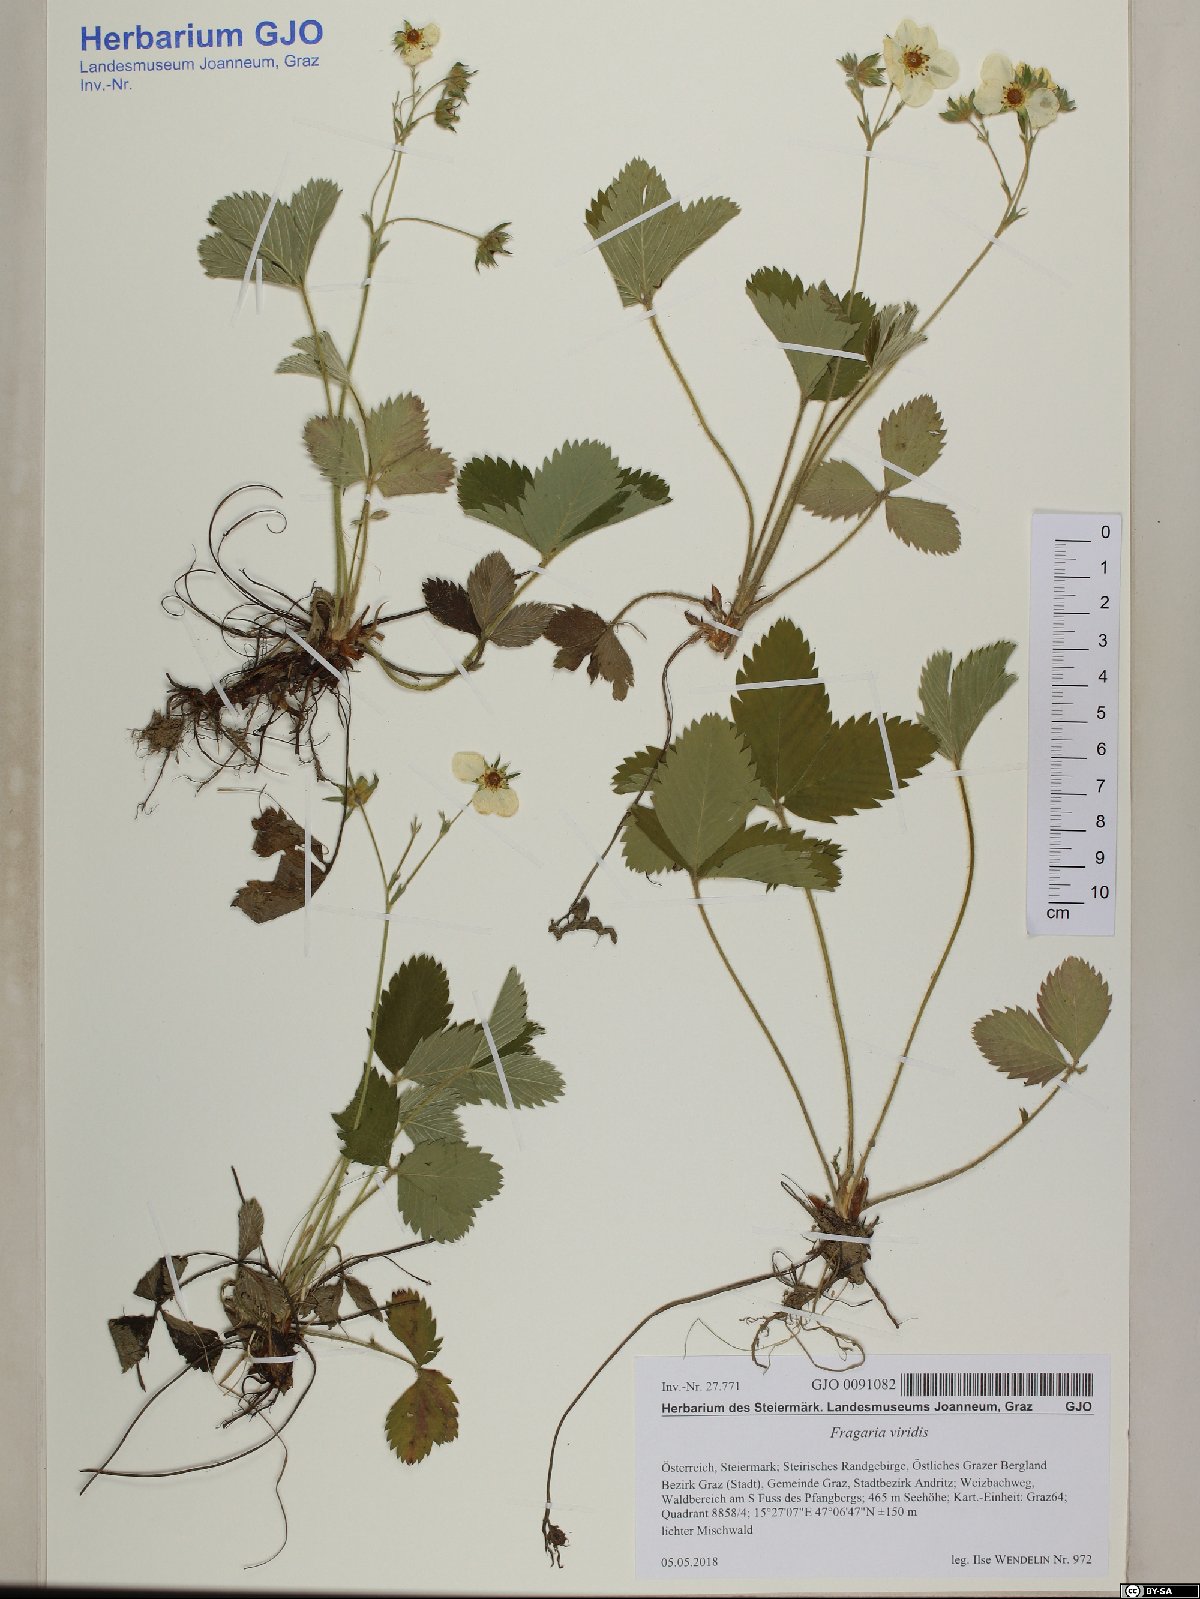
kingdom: Plantae
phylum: Tracheophyta
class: Magnoliopsida
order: Rosales
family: Rosaceae
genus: Fragaria
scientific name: Fragaria viridis
